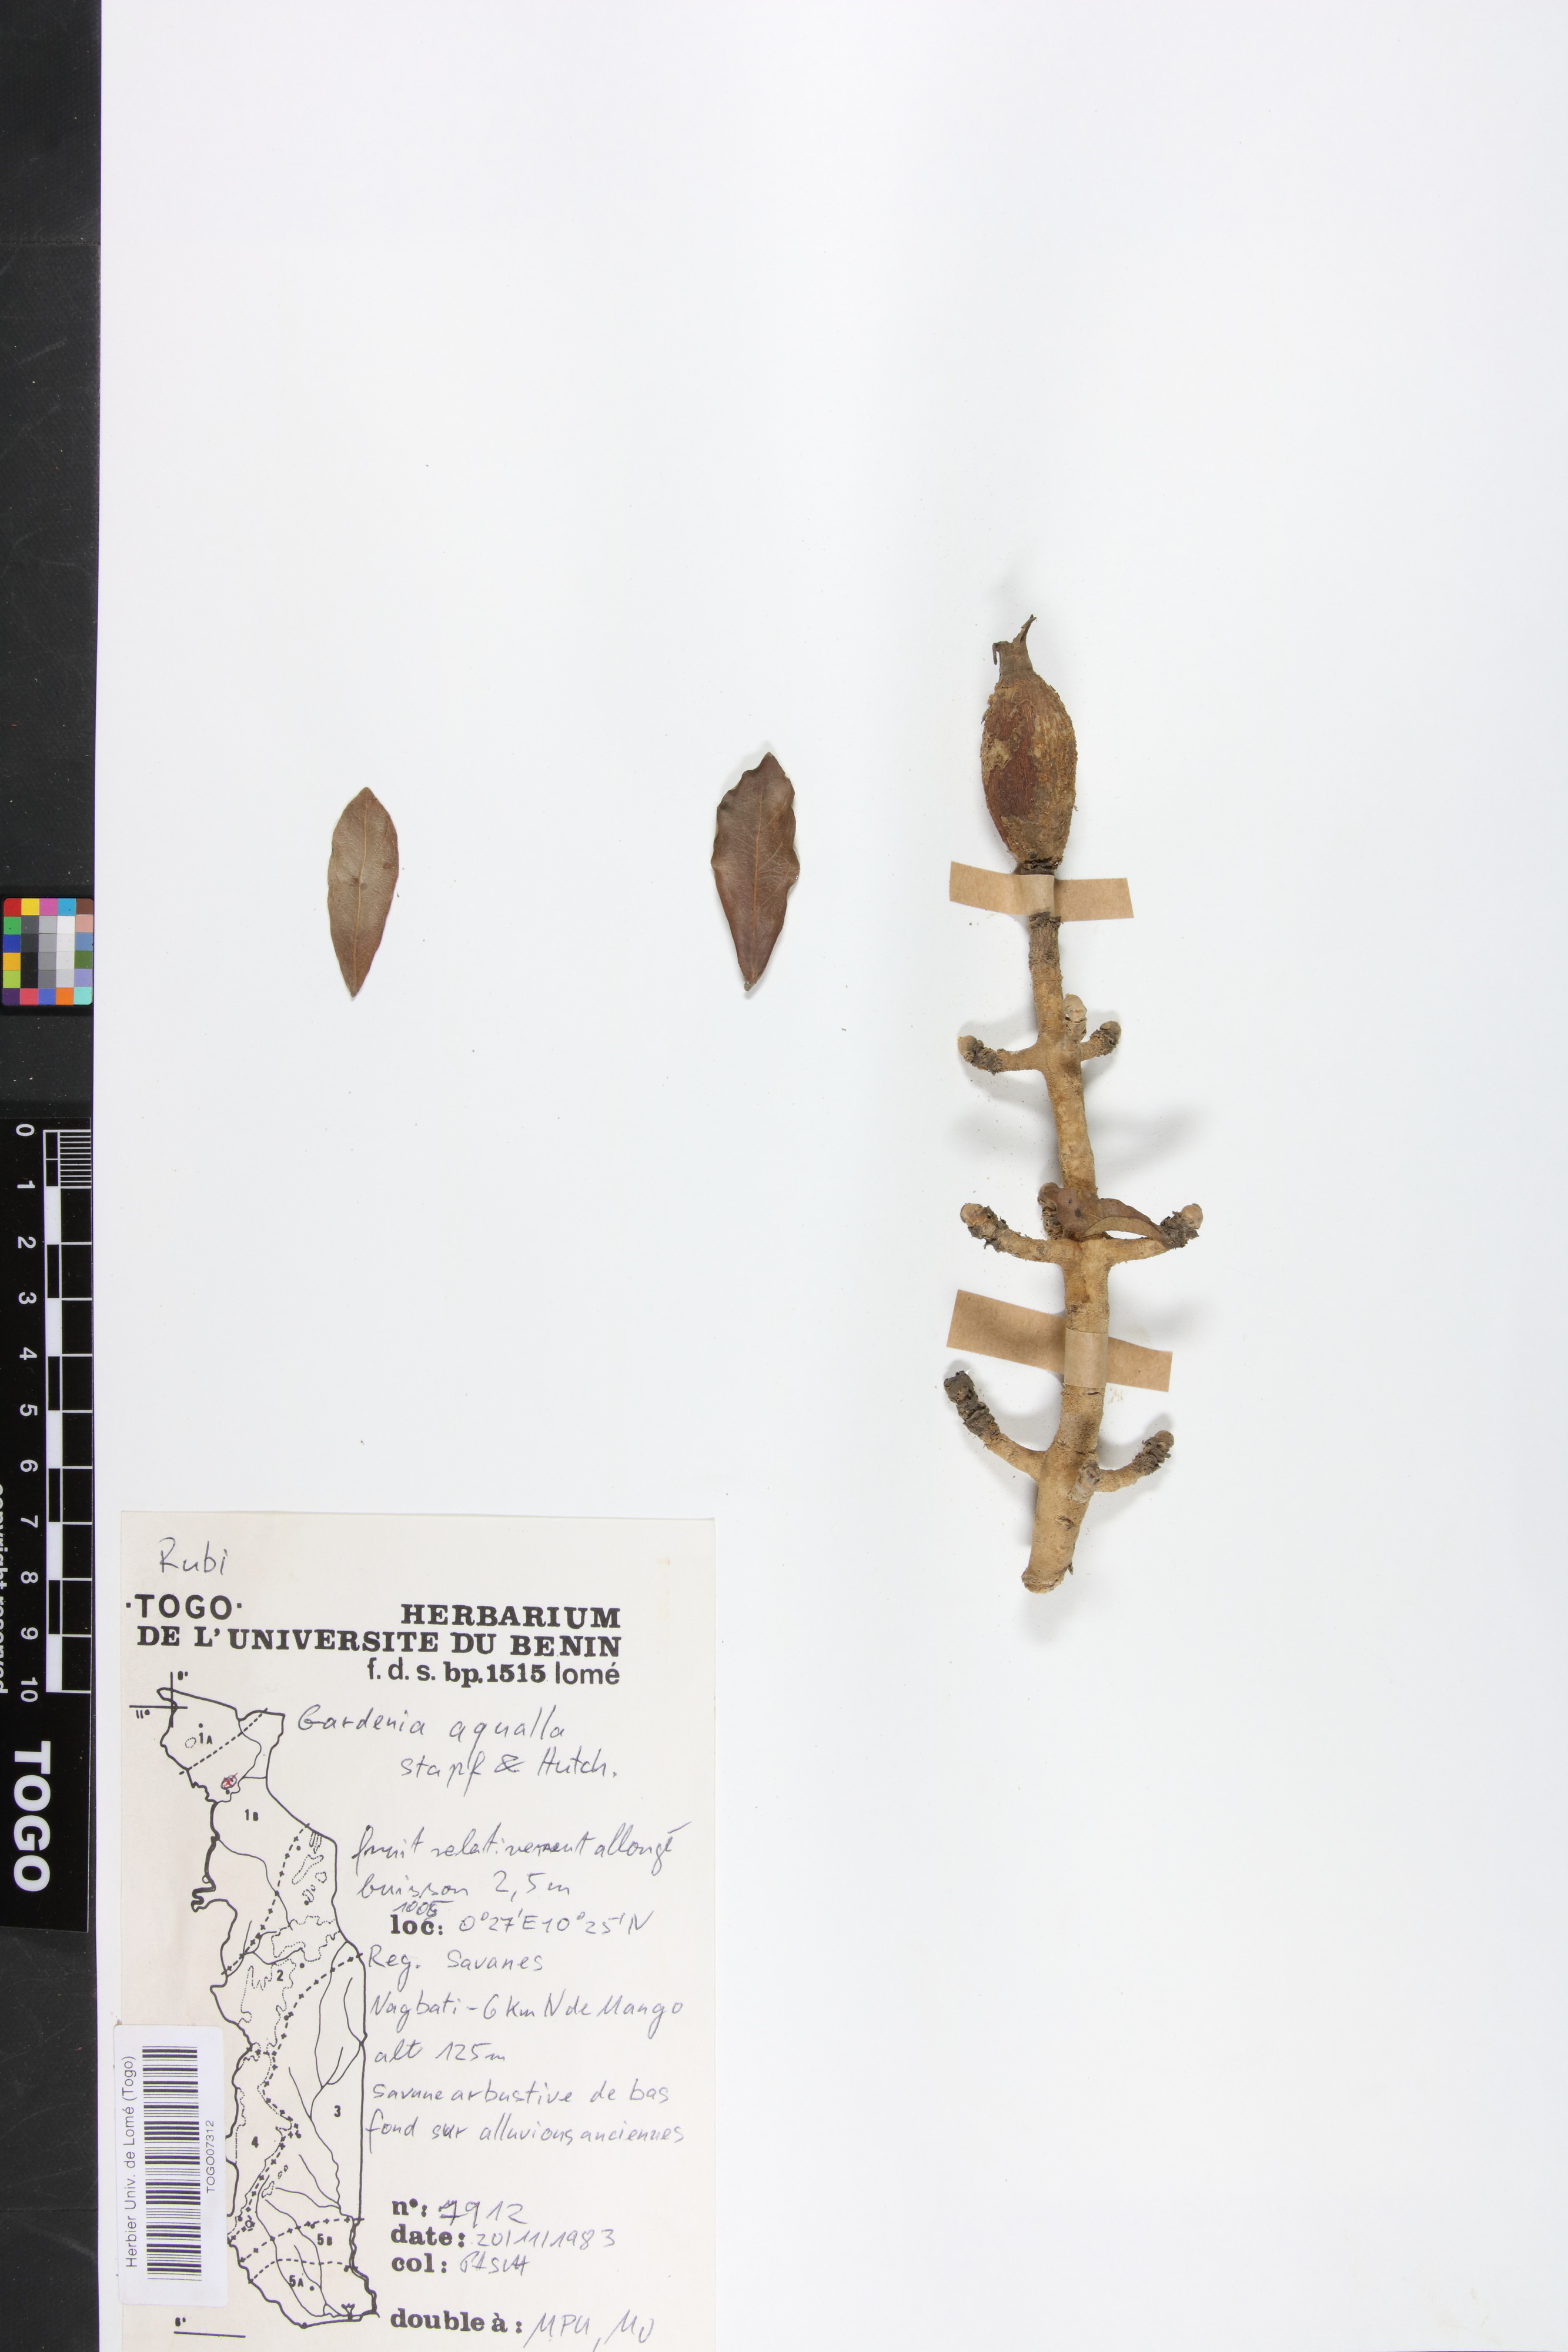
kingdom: Plantae
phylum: Tracheophyta
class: Magnoliopsida
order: Gentianales
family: Rubiaceae
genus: Gardenia
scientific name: Gardenia aqualla
